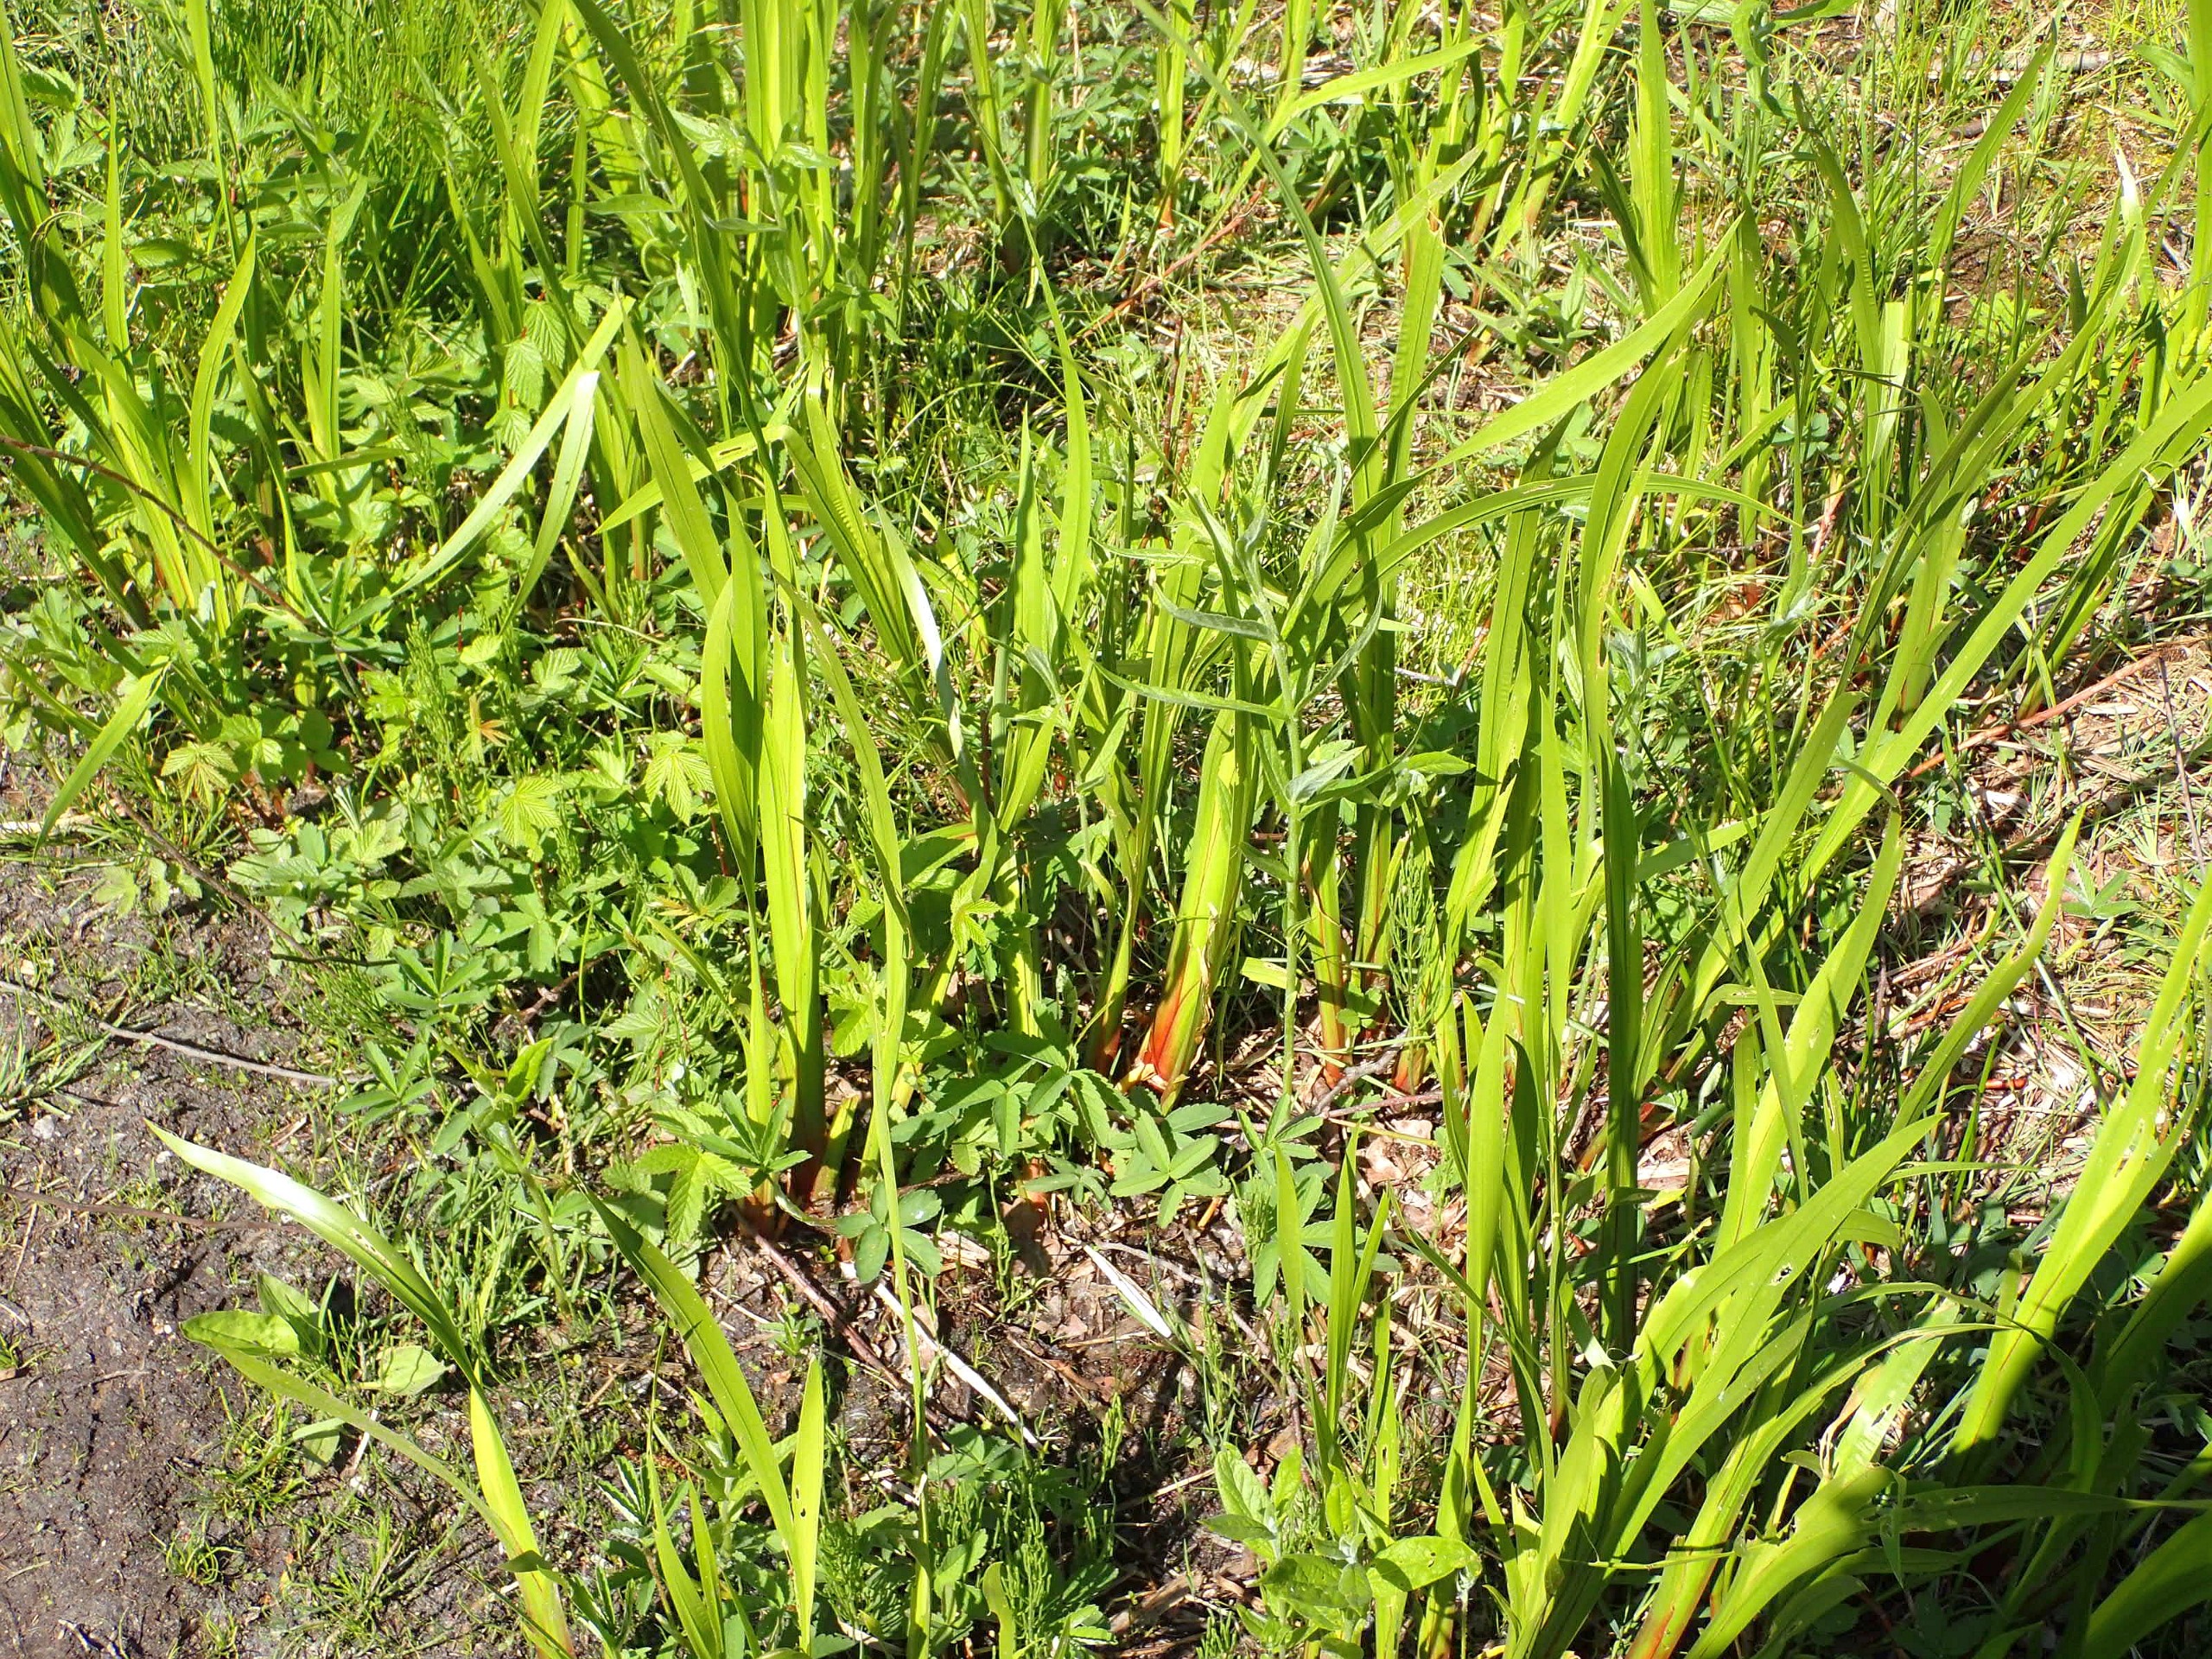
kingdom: Plantae
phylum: Tracheophyta
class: Liliopsida
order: Acorales
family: Acoraceae
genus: Acorus
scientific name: Acorus calamus
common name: Kalmus
